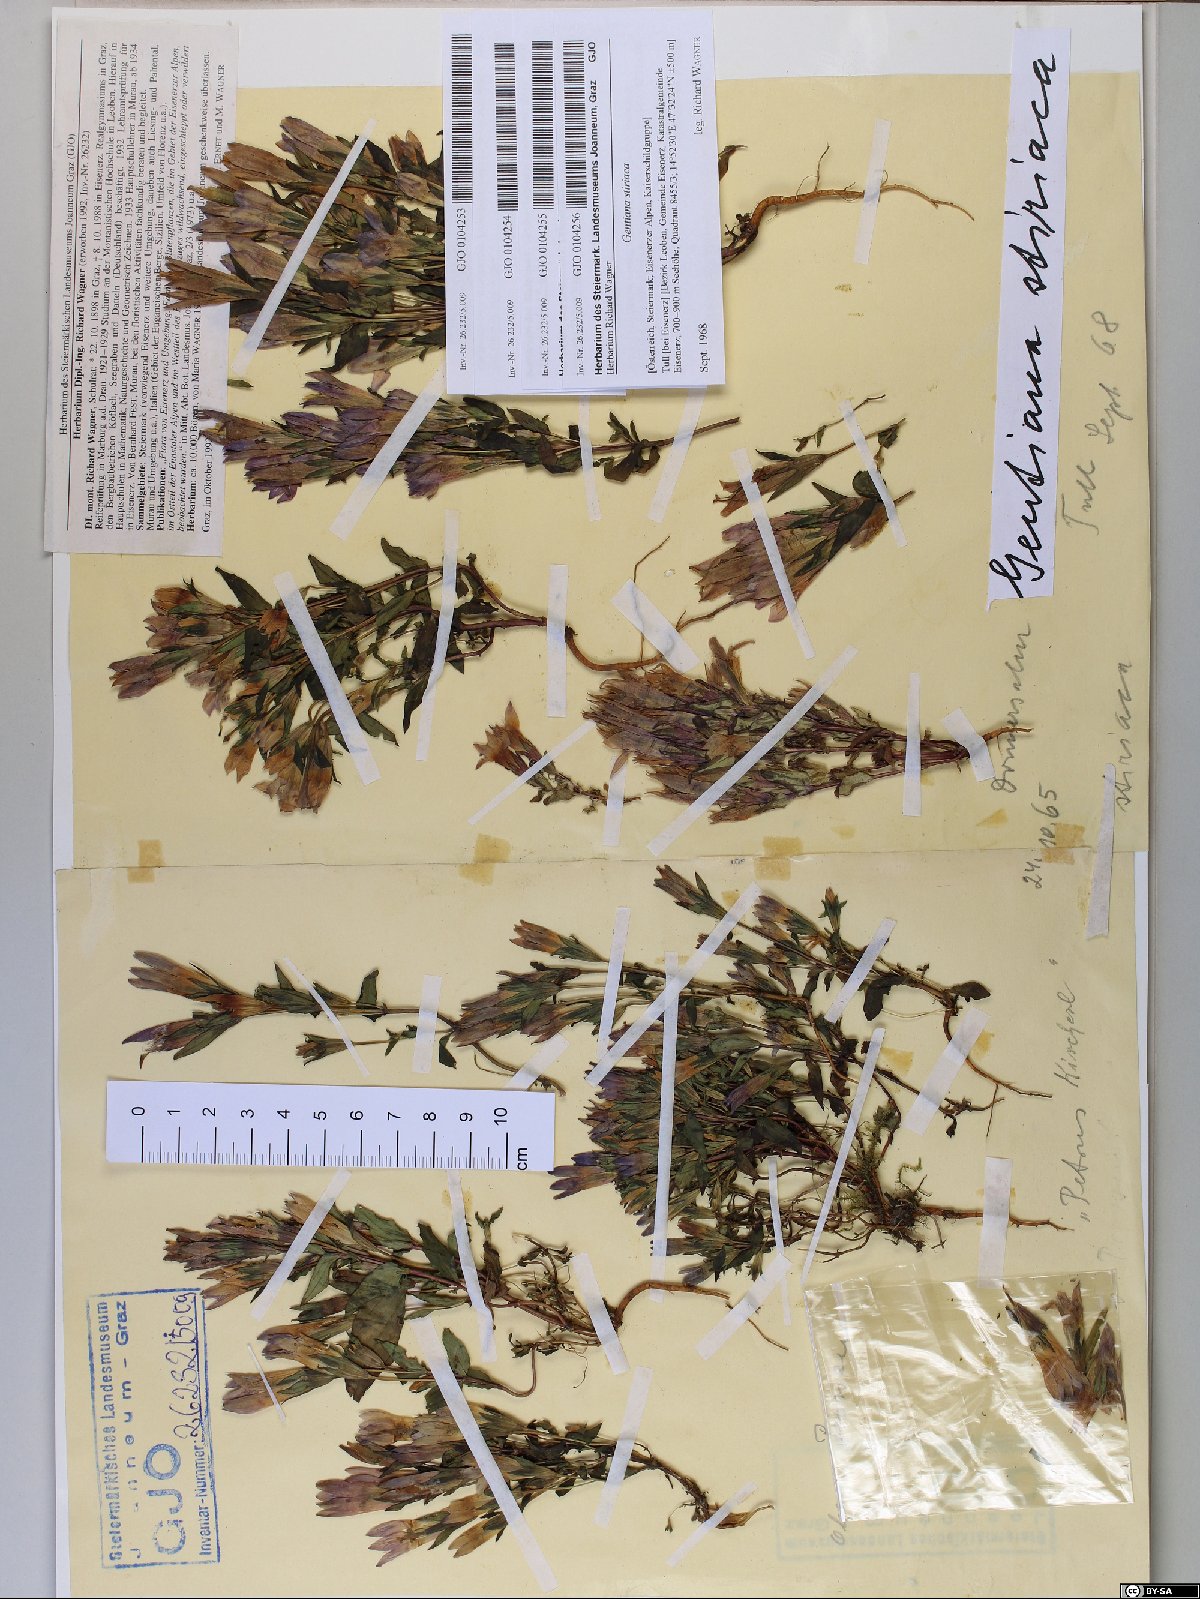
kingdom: Plantae
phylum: Tracheophyta
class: Magnoliopsida
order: Gentianales
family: Gentianaceae
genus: Gentianella
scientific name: Gentianella rhaetica
